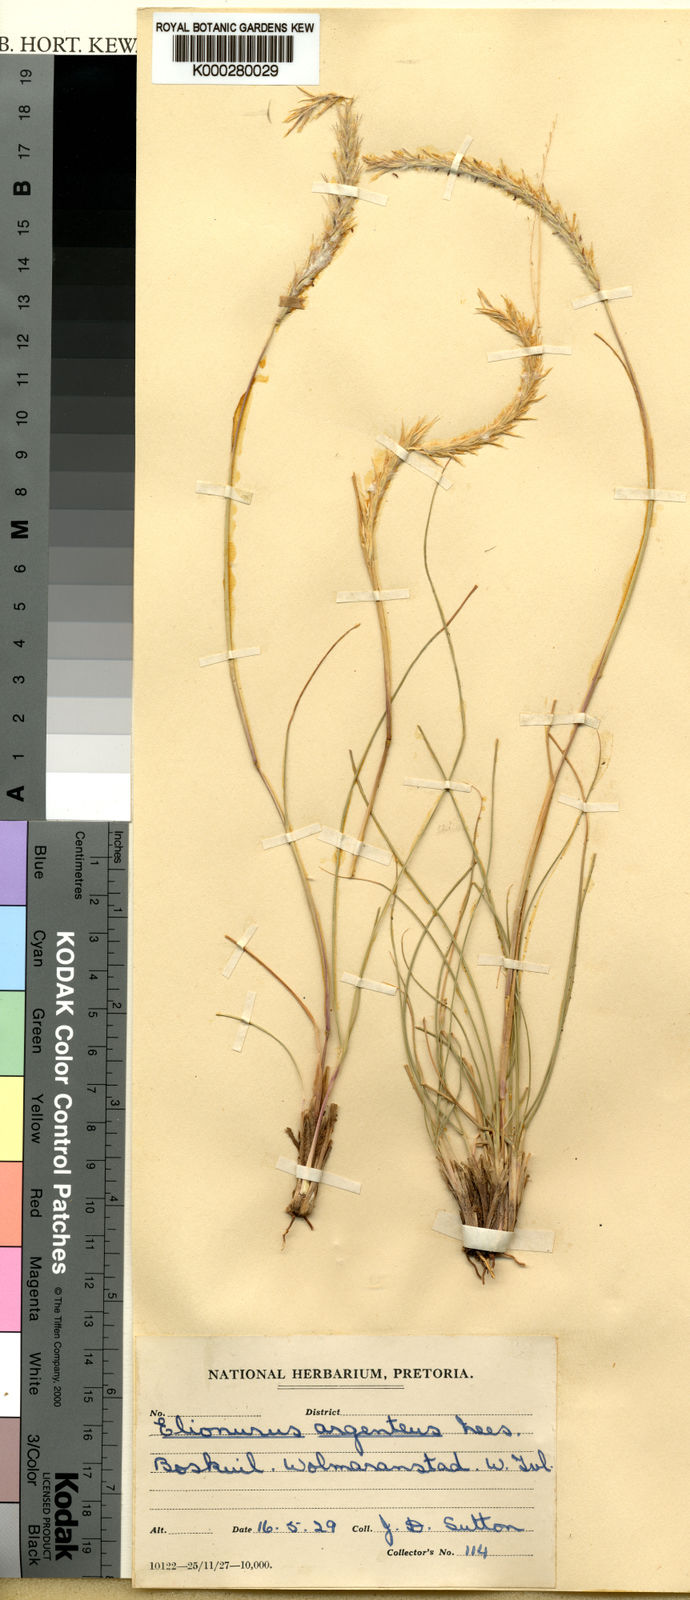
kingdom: Plantae
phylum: Tracheophyta
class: Liliopsida
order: Poales
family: Poaceae
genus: Elionurus
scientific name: Elionurus muticus
